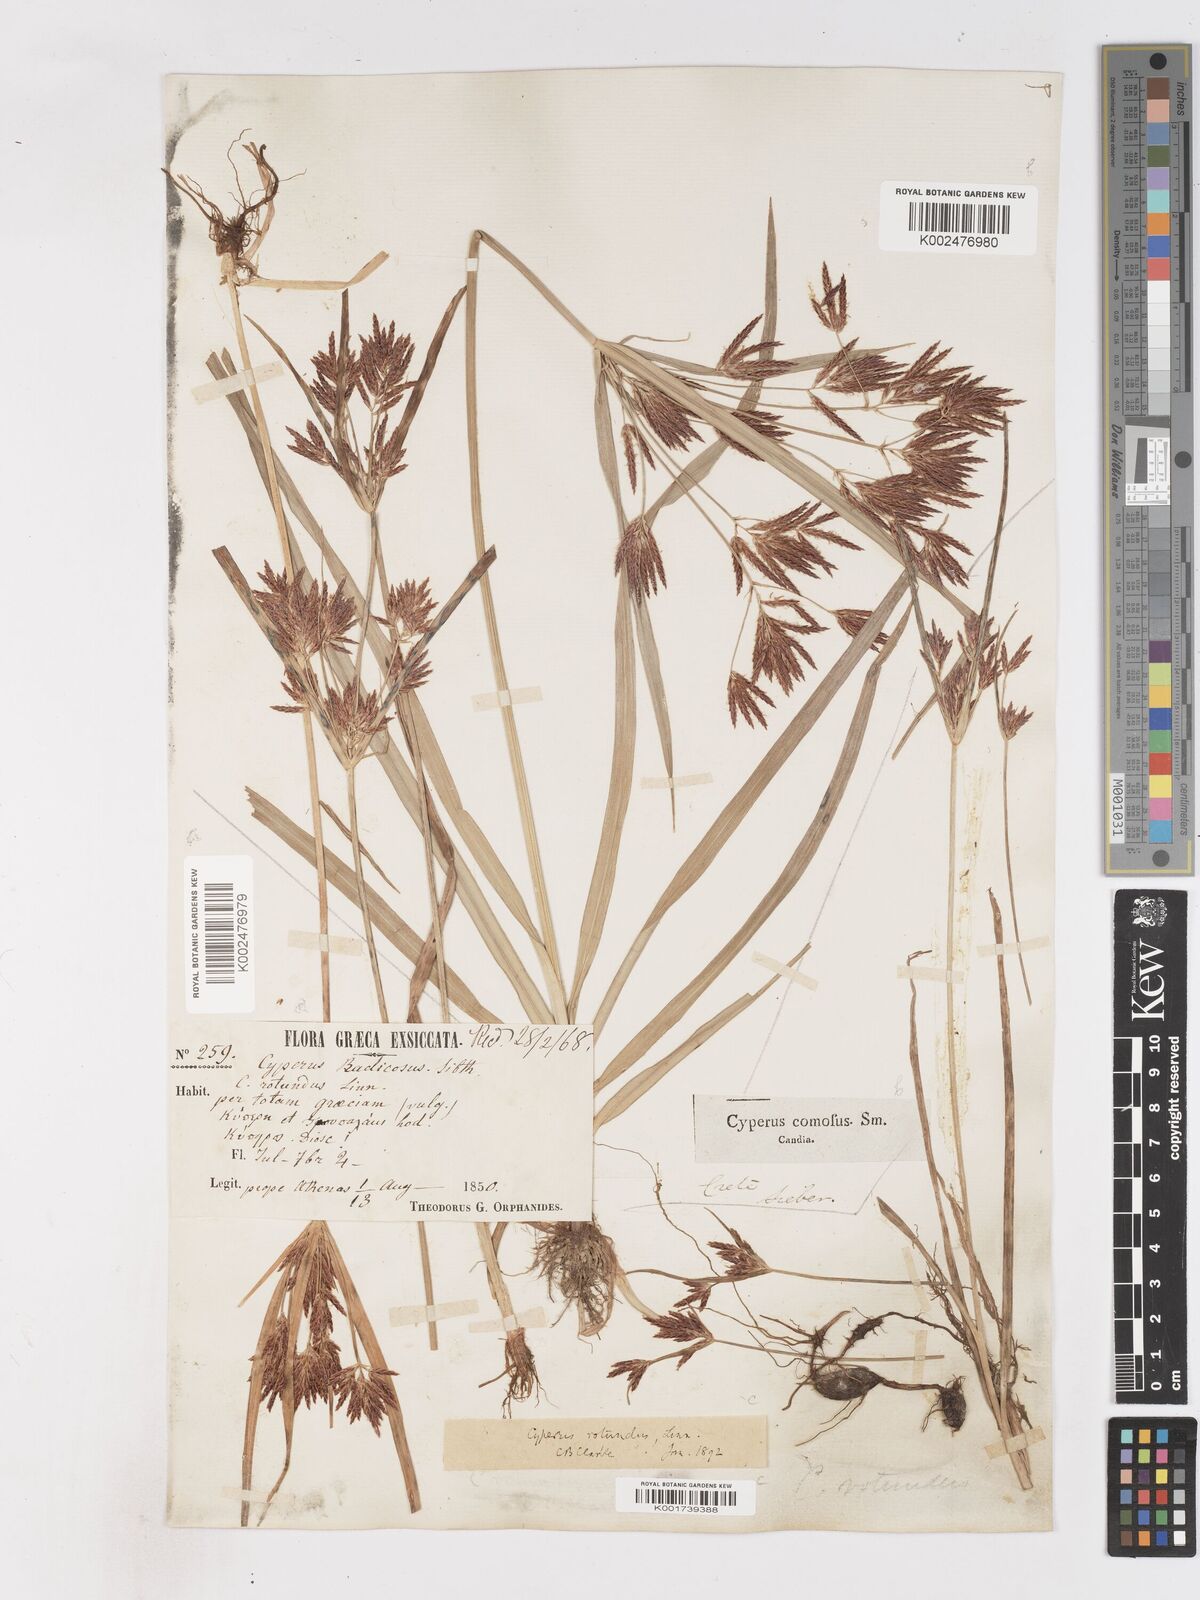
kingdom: Plantae
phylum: Tracheophyta
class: Liliopsida
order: Poales
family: Cyperaceae
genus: Cyperus
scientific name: Cyperus rotundus
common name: Nutgrass
